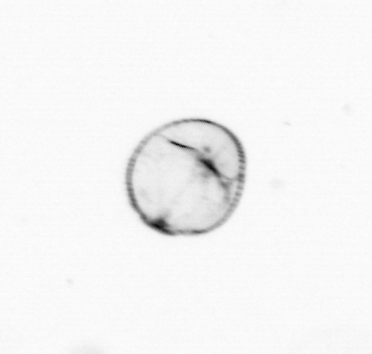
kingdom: Chromista
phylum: Myzozoa
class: Dinophyceae
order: Noctilucales
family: Noctilucaceae
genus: Noctiluca
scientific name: Noctiluca scintillans
